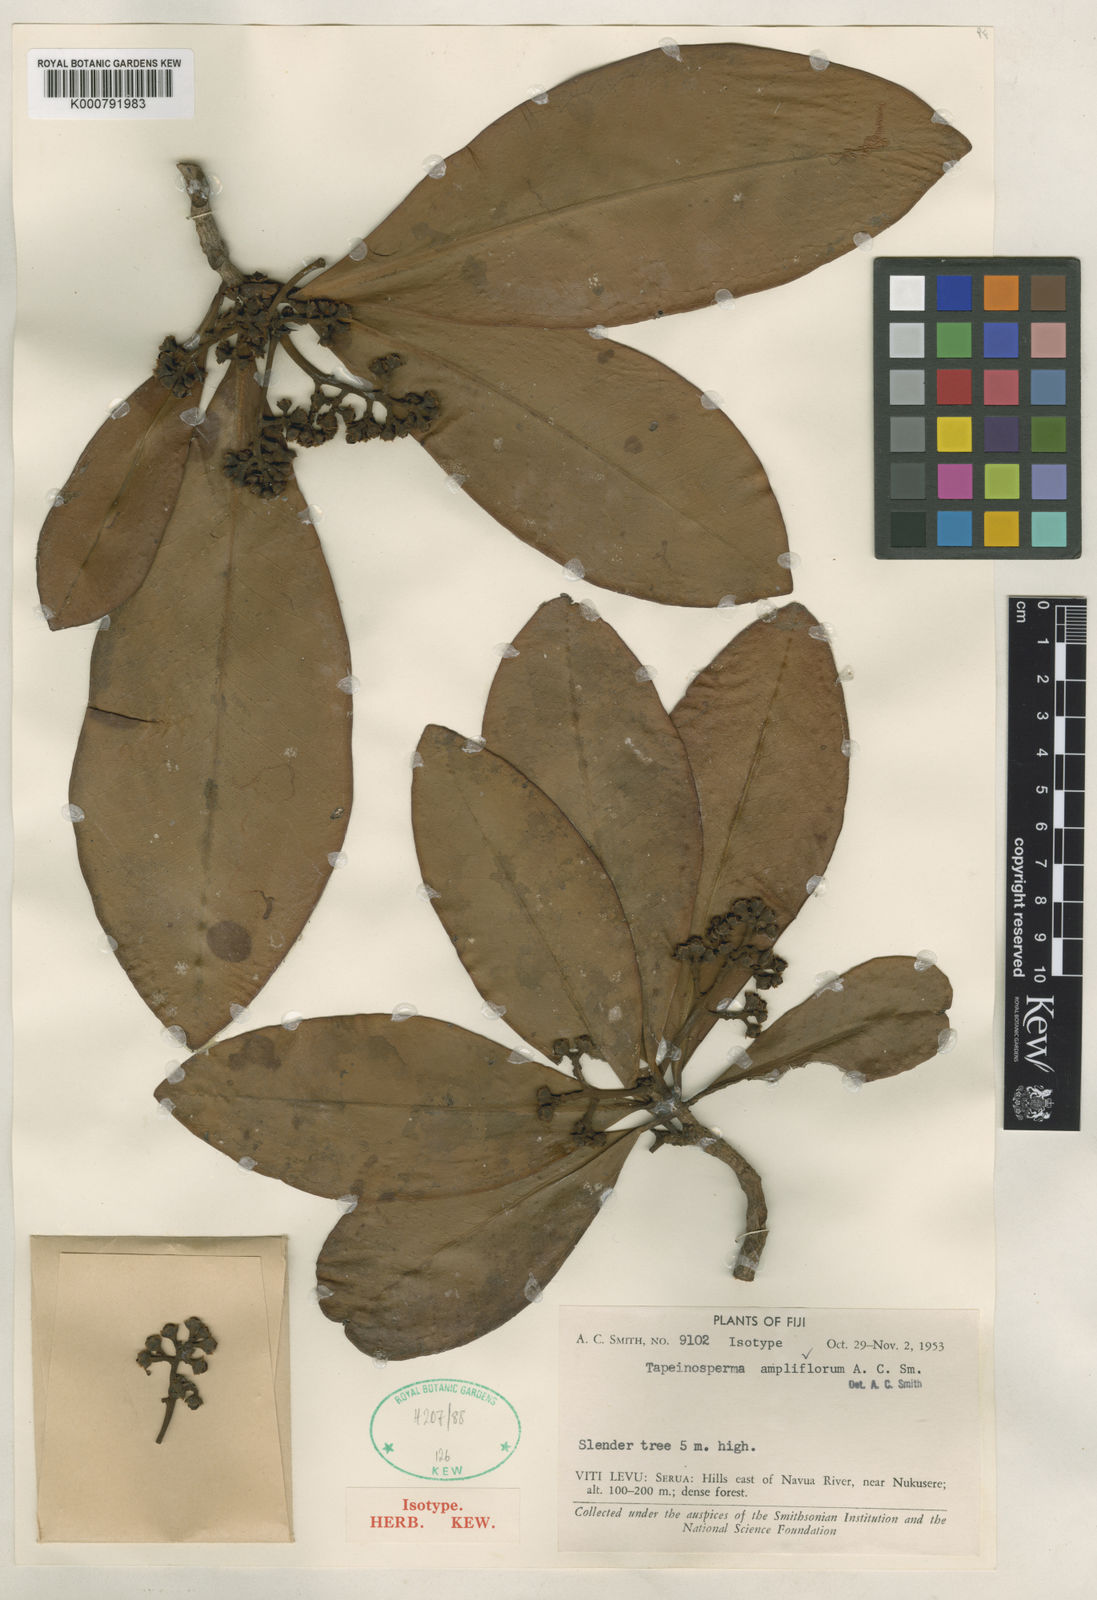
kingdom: Plantae
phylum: Tracheophyta
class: Magnoliopsida
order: Ericales
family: Primulaceae
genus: Tapeinosperma
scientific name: Tapeinosperma ampliflorum
